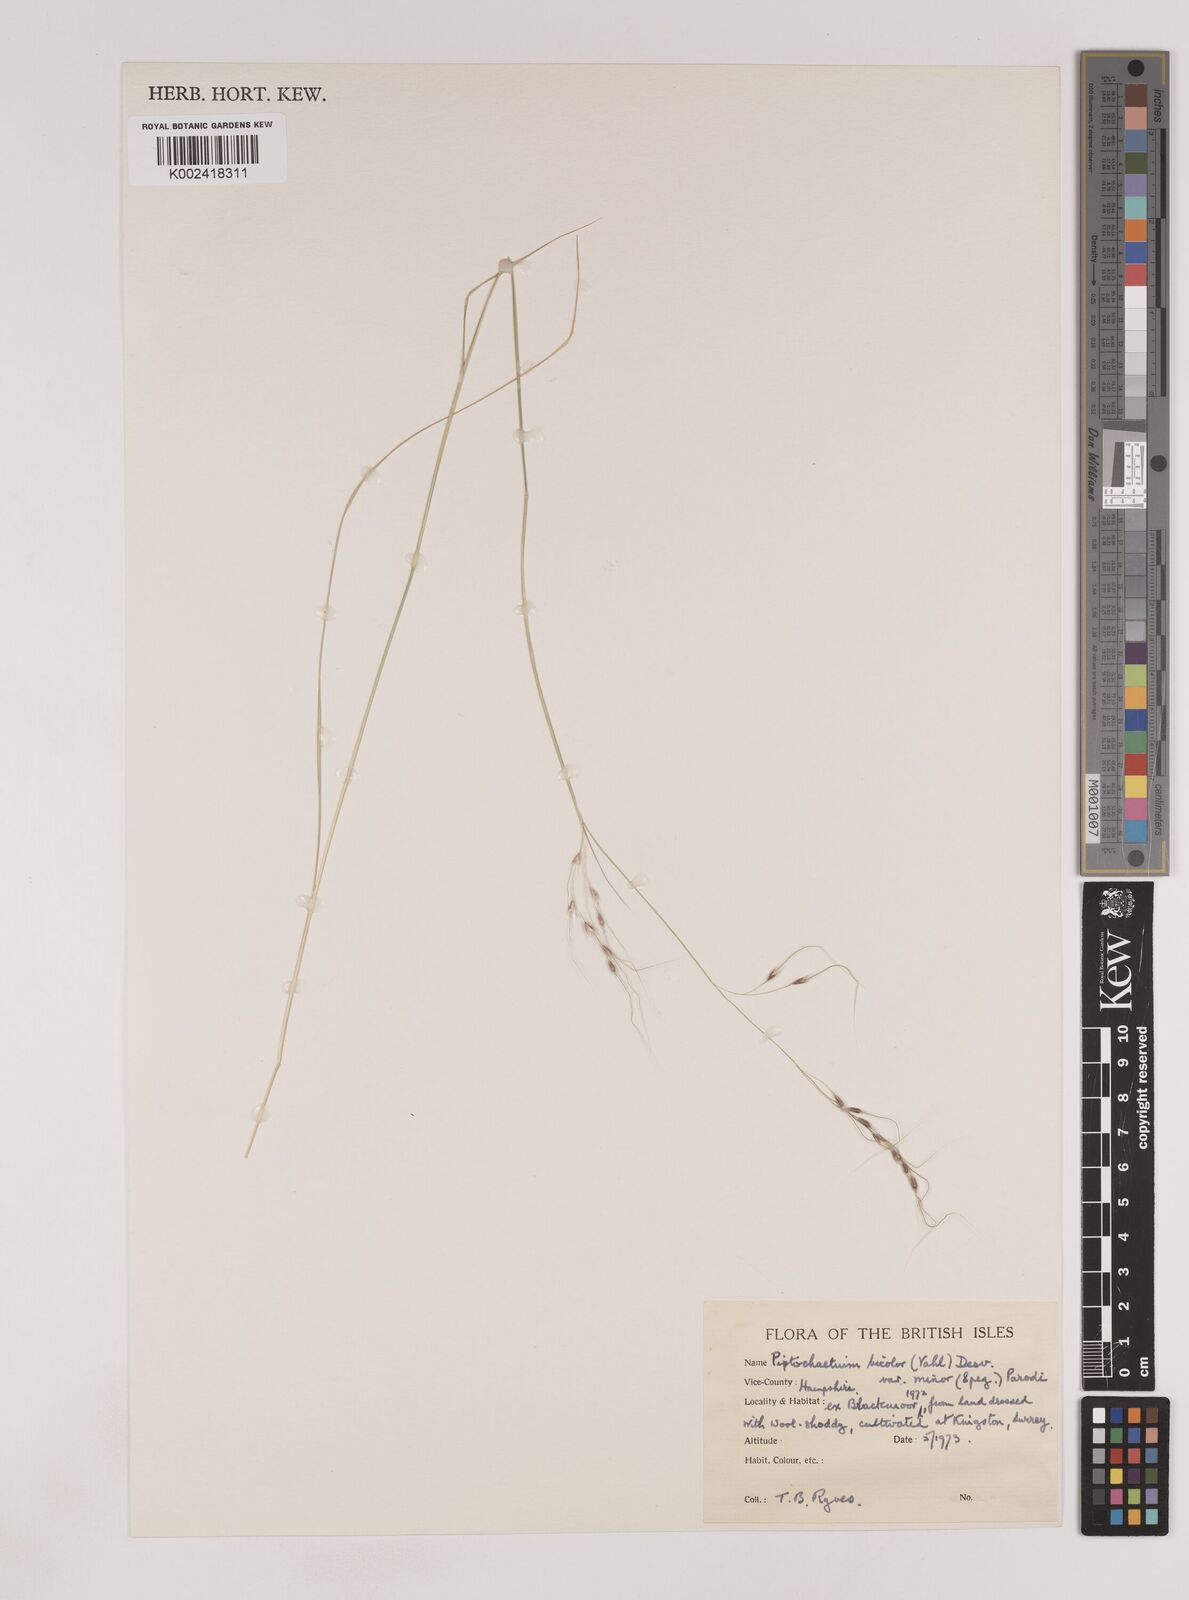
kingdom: Plantae
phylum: Tracheophyta
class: Liliopsida
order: Poales
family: Poaceae
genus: Piptochaetium
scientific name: Piptochaetium bicolor
